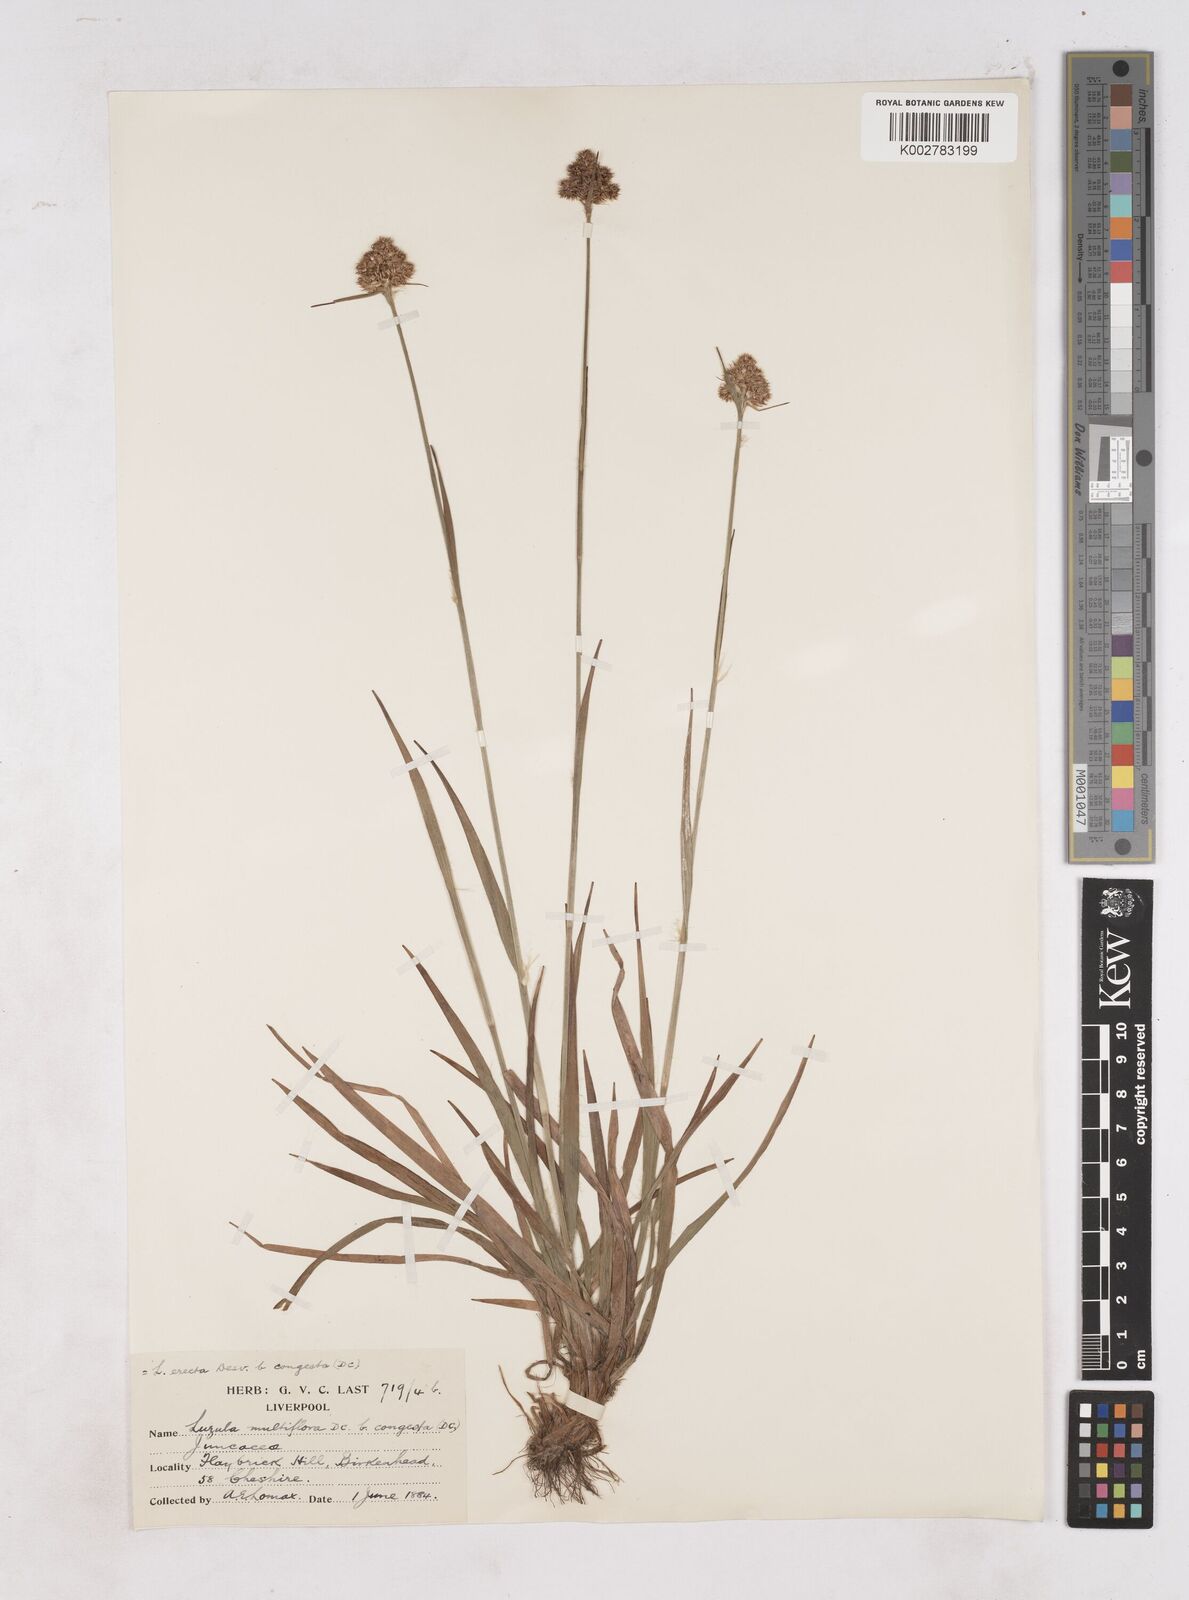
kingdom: Plantae
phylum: Tracheophyta
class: Liliopsida
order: Poales
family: Juncaceae
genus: Luzula
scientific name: Luzula multiflora
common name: Heath wood-rush
